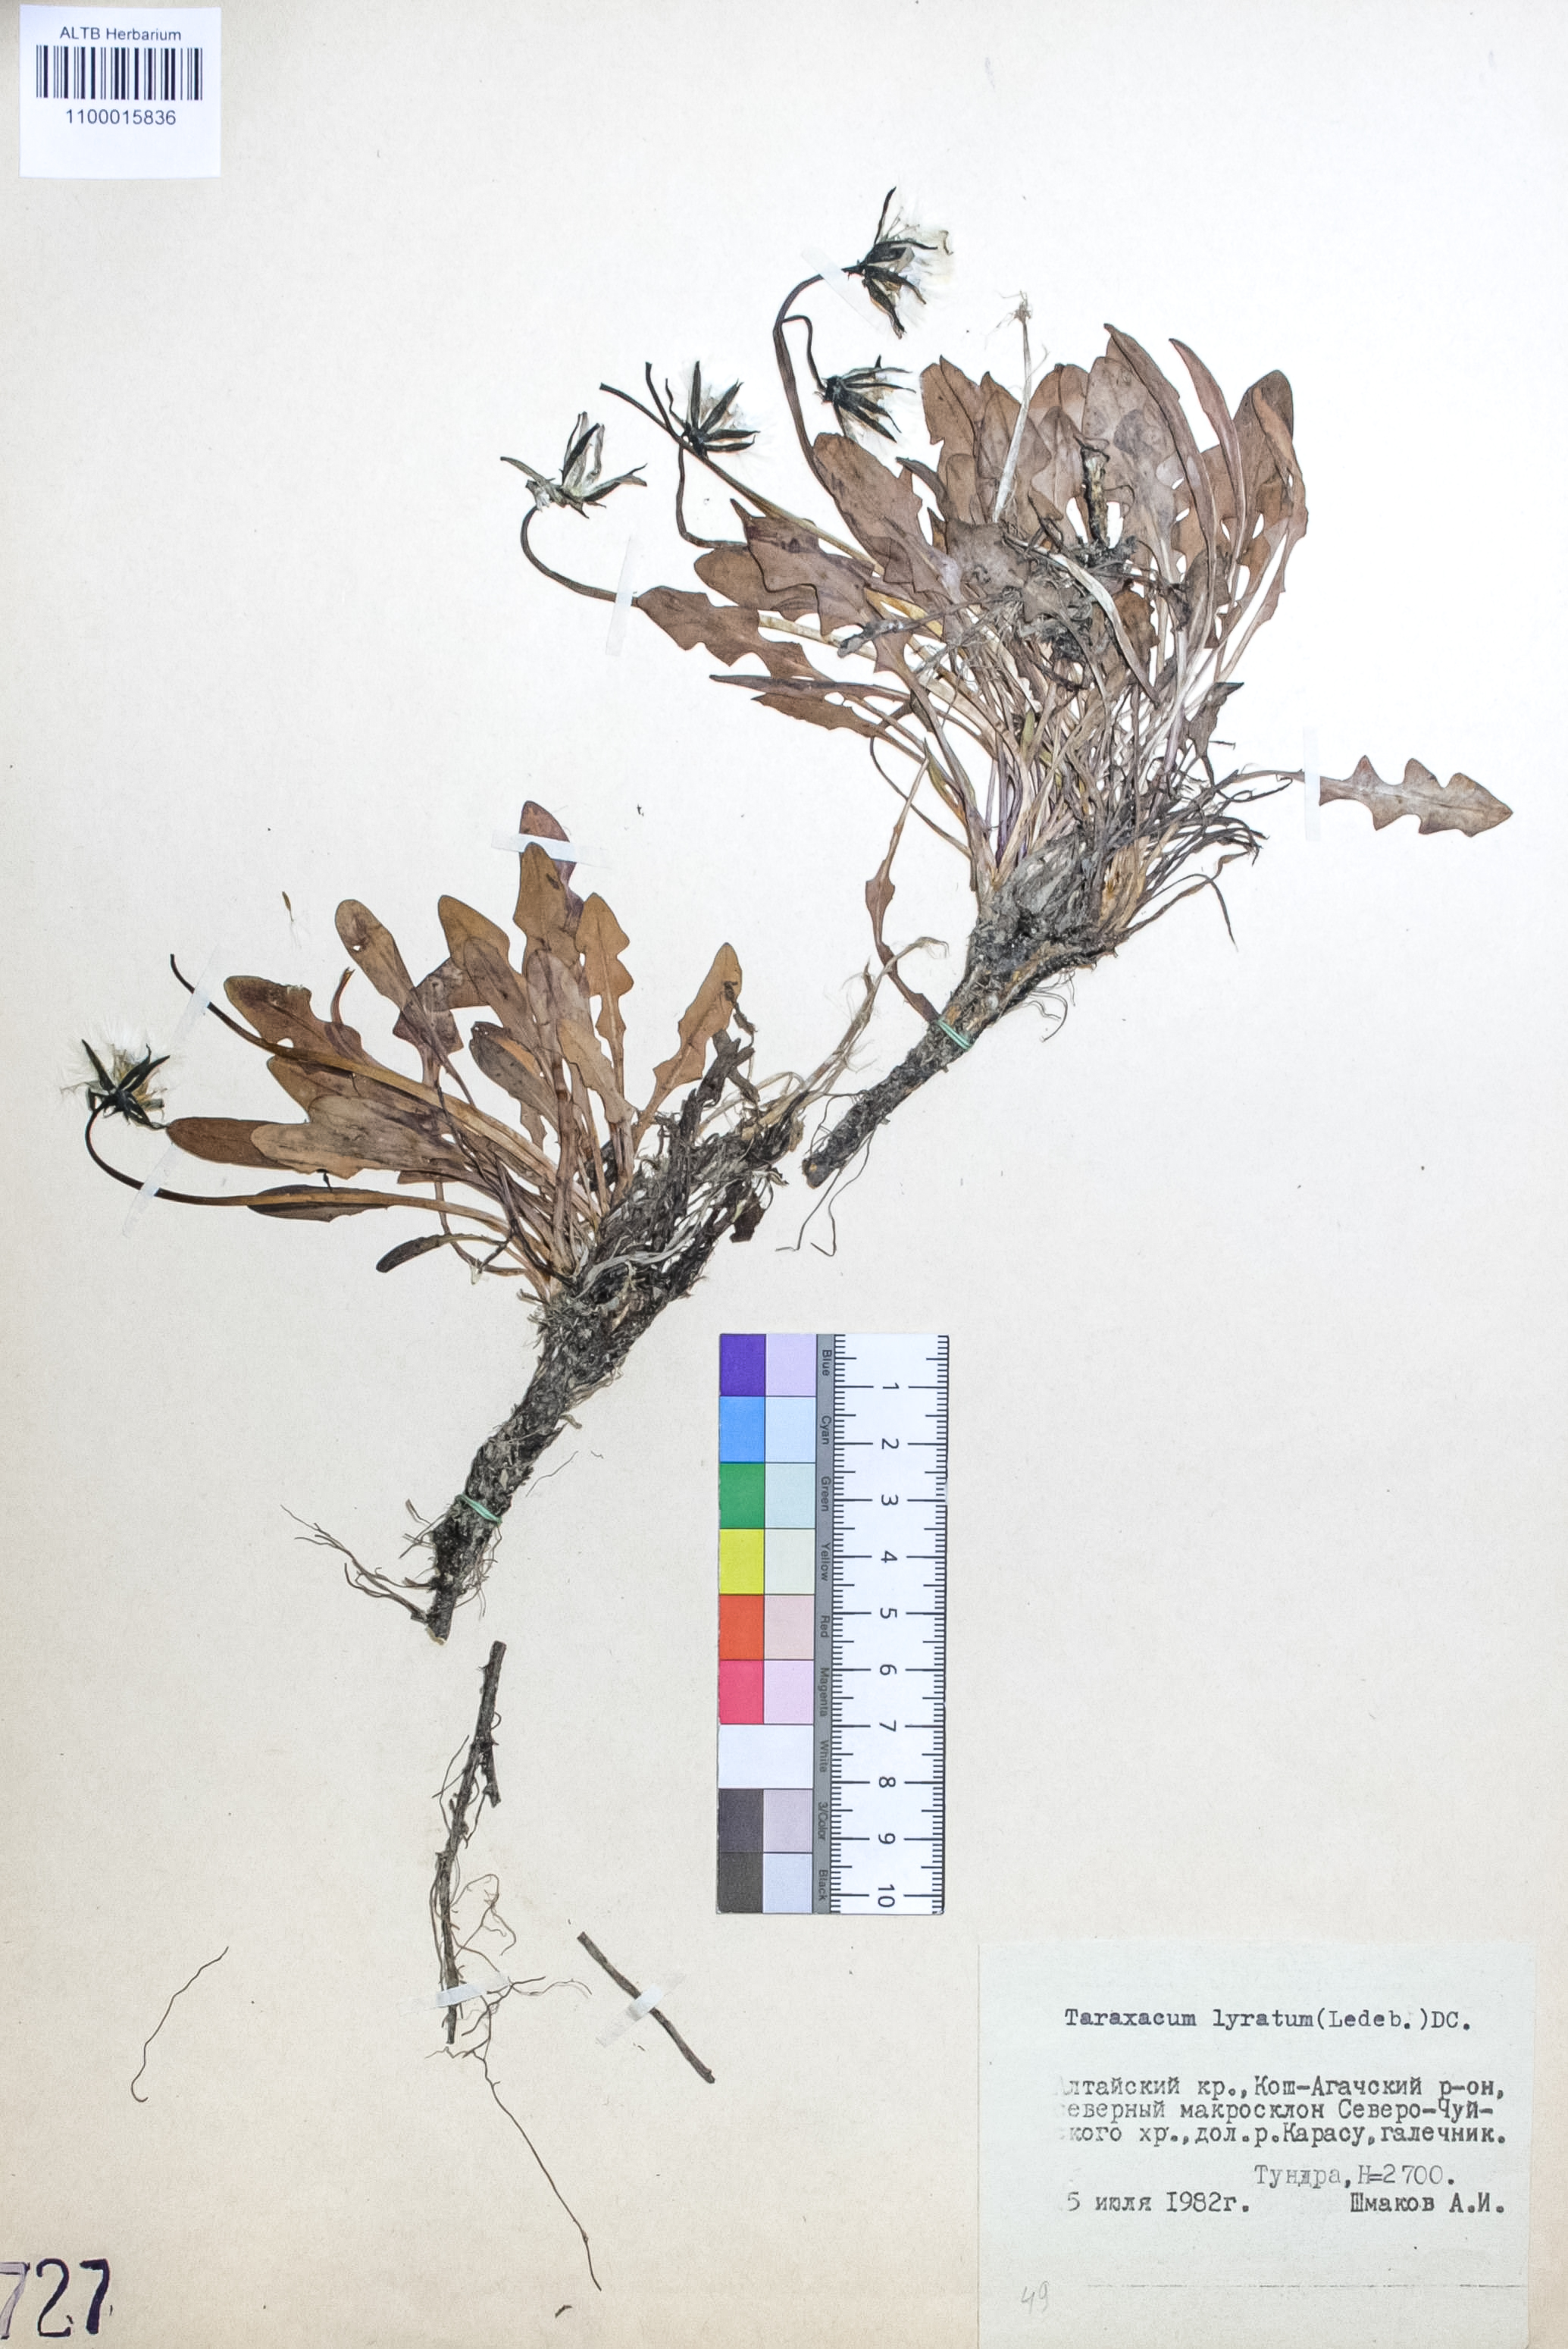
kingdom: Plantae
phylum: Tracheophyta
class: Magnoliopsida
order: Asterales
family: Asteraceae
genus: Taraxacum
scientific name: Taraxacum alaskanum
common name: Alaska dandelion
